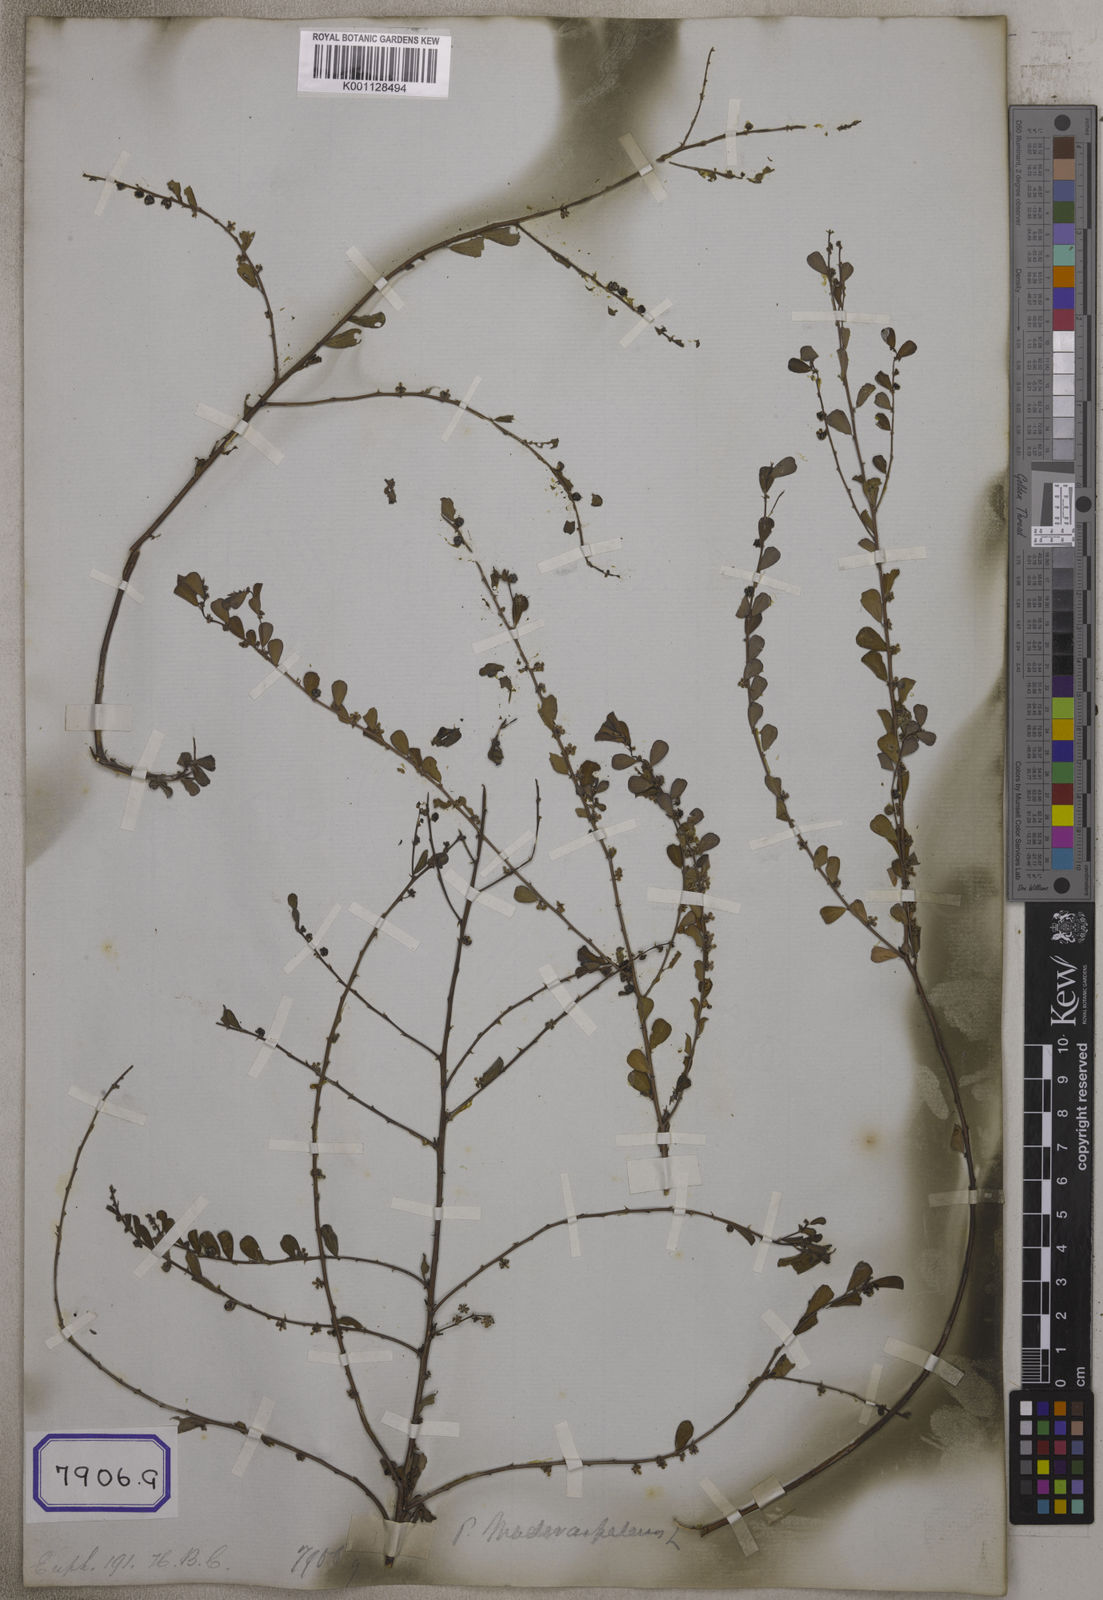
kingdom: Plantae
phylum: Tracheophyta
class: Magnoliopsida
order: Malpighiales
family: Euphorbiaceae
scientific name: Euphorbiaceae
